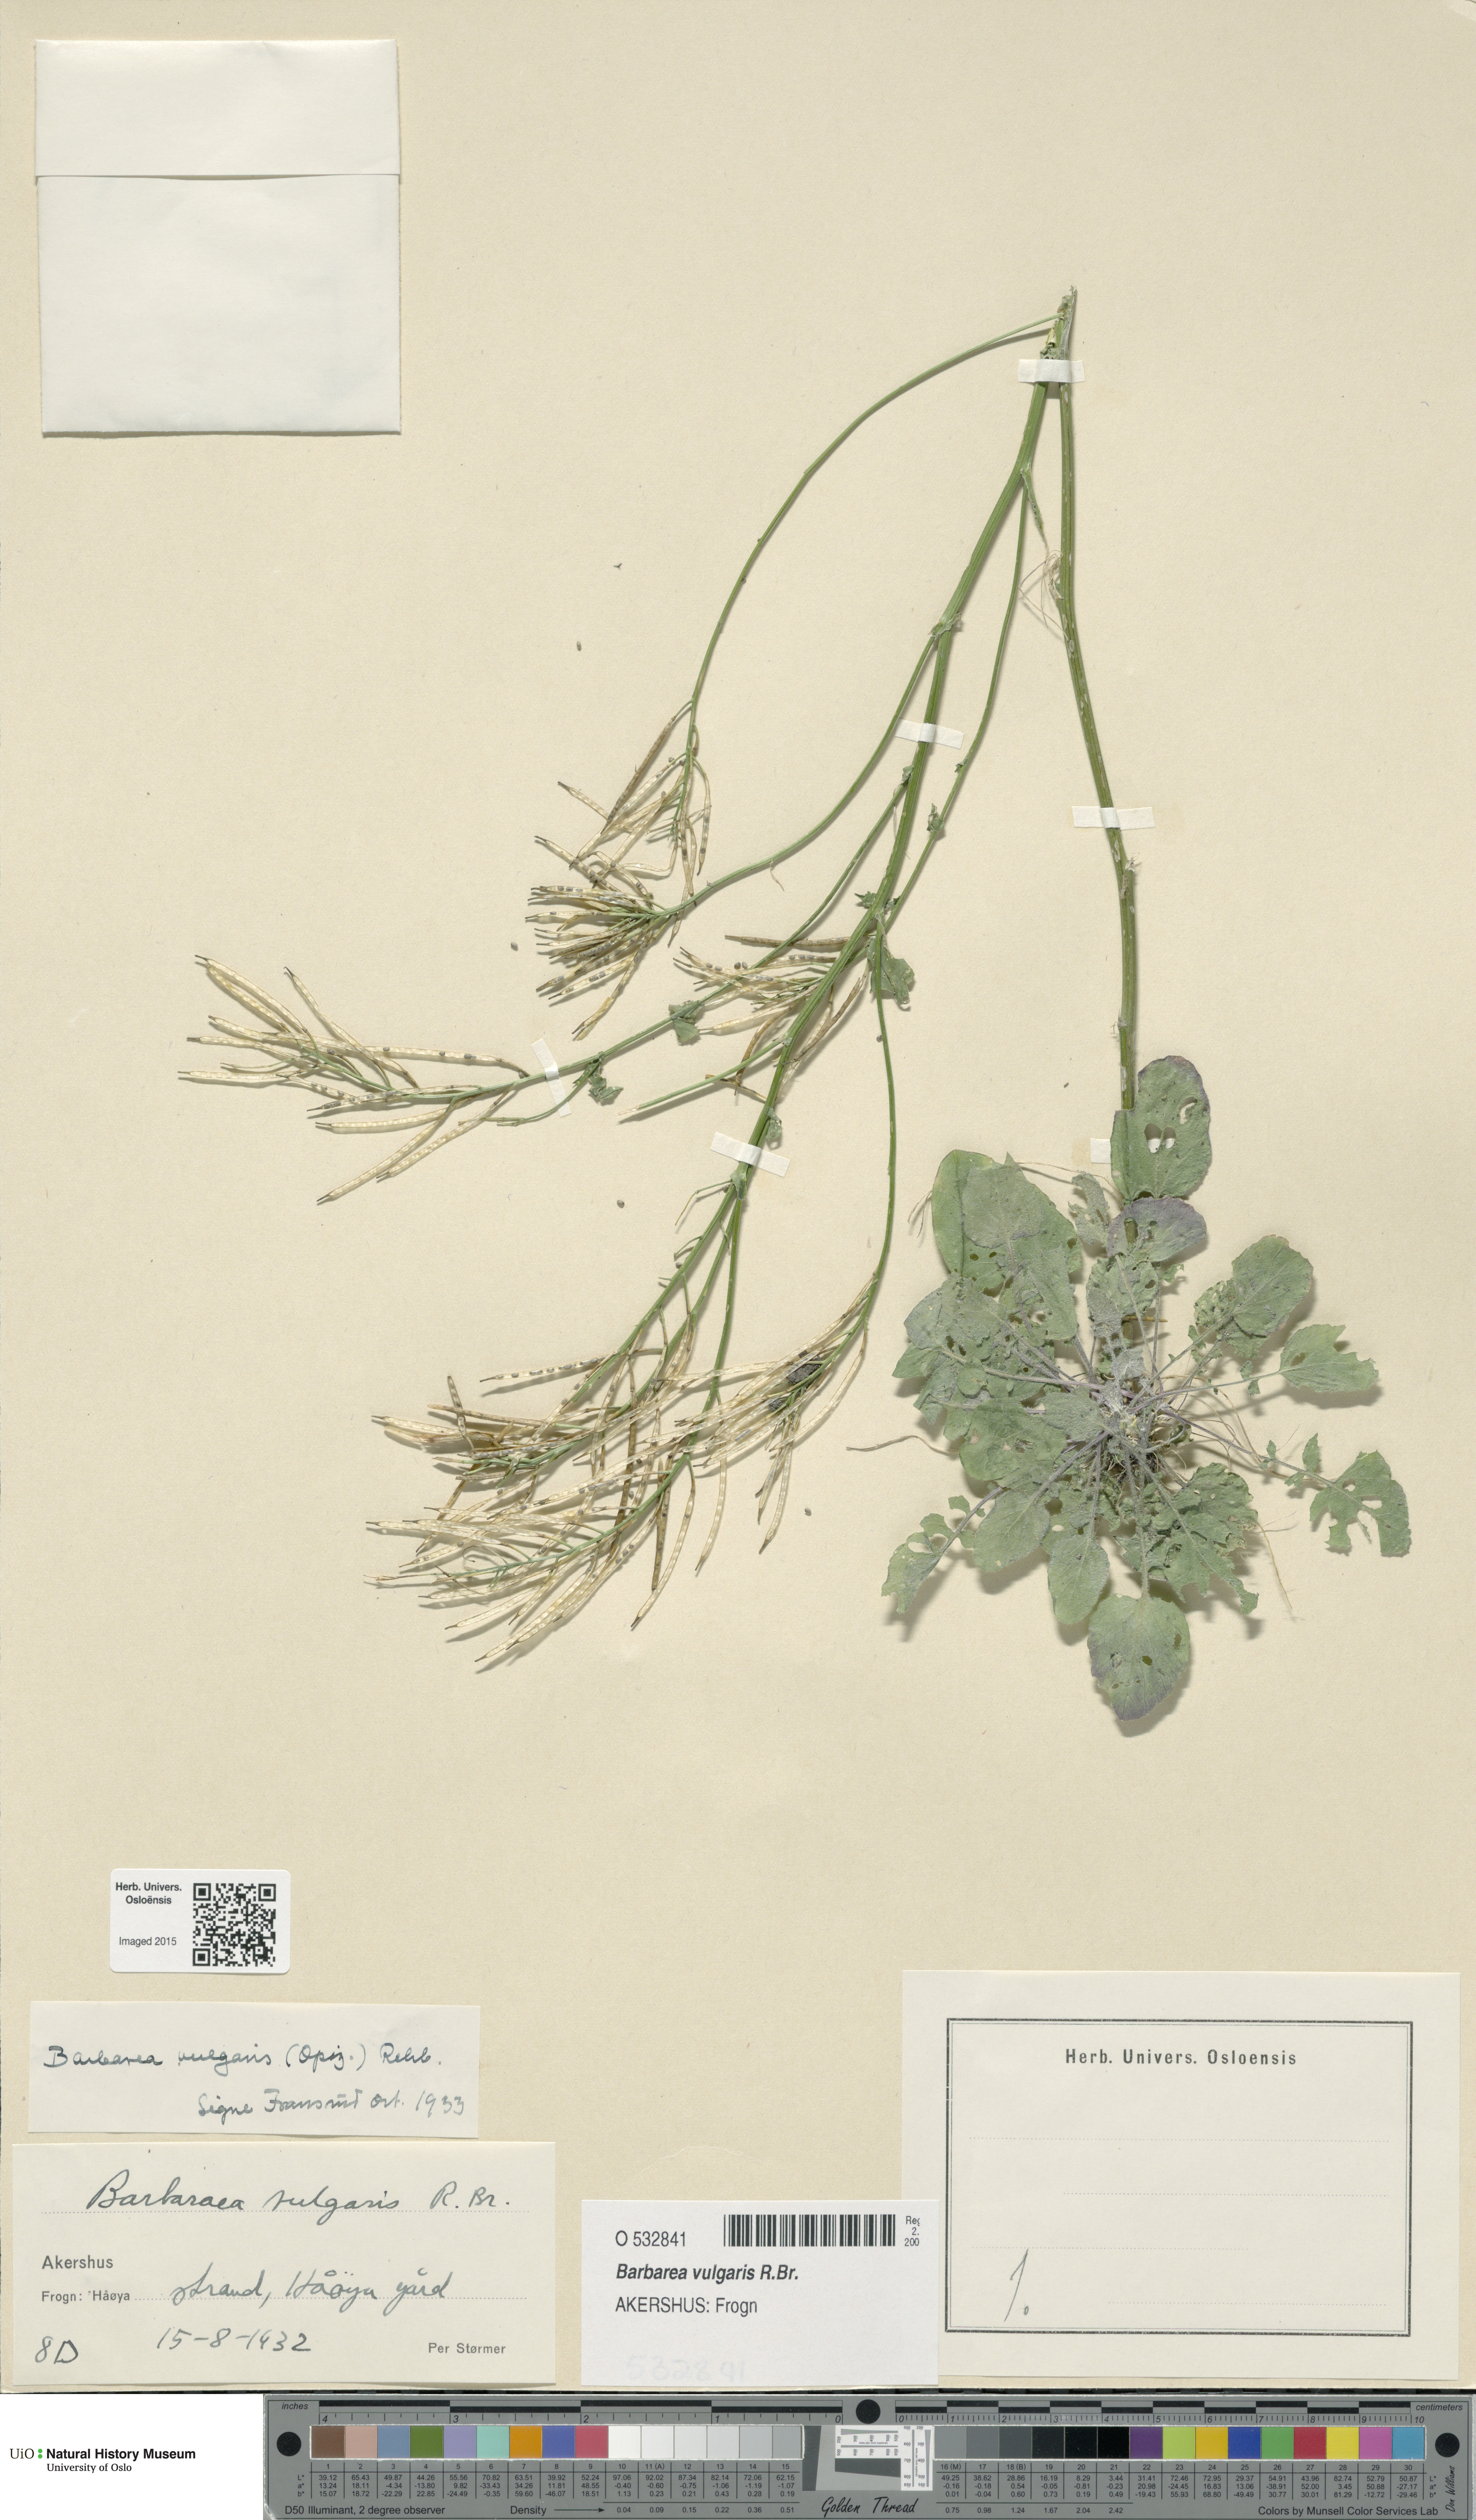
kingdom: Plantae
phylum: Tracheophyta
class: Magnoliopsida
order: Brassicales
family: Brassicaceae
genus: Barbarea
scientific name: Barbarea vulgaris
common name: Cressy-greens
